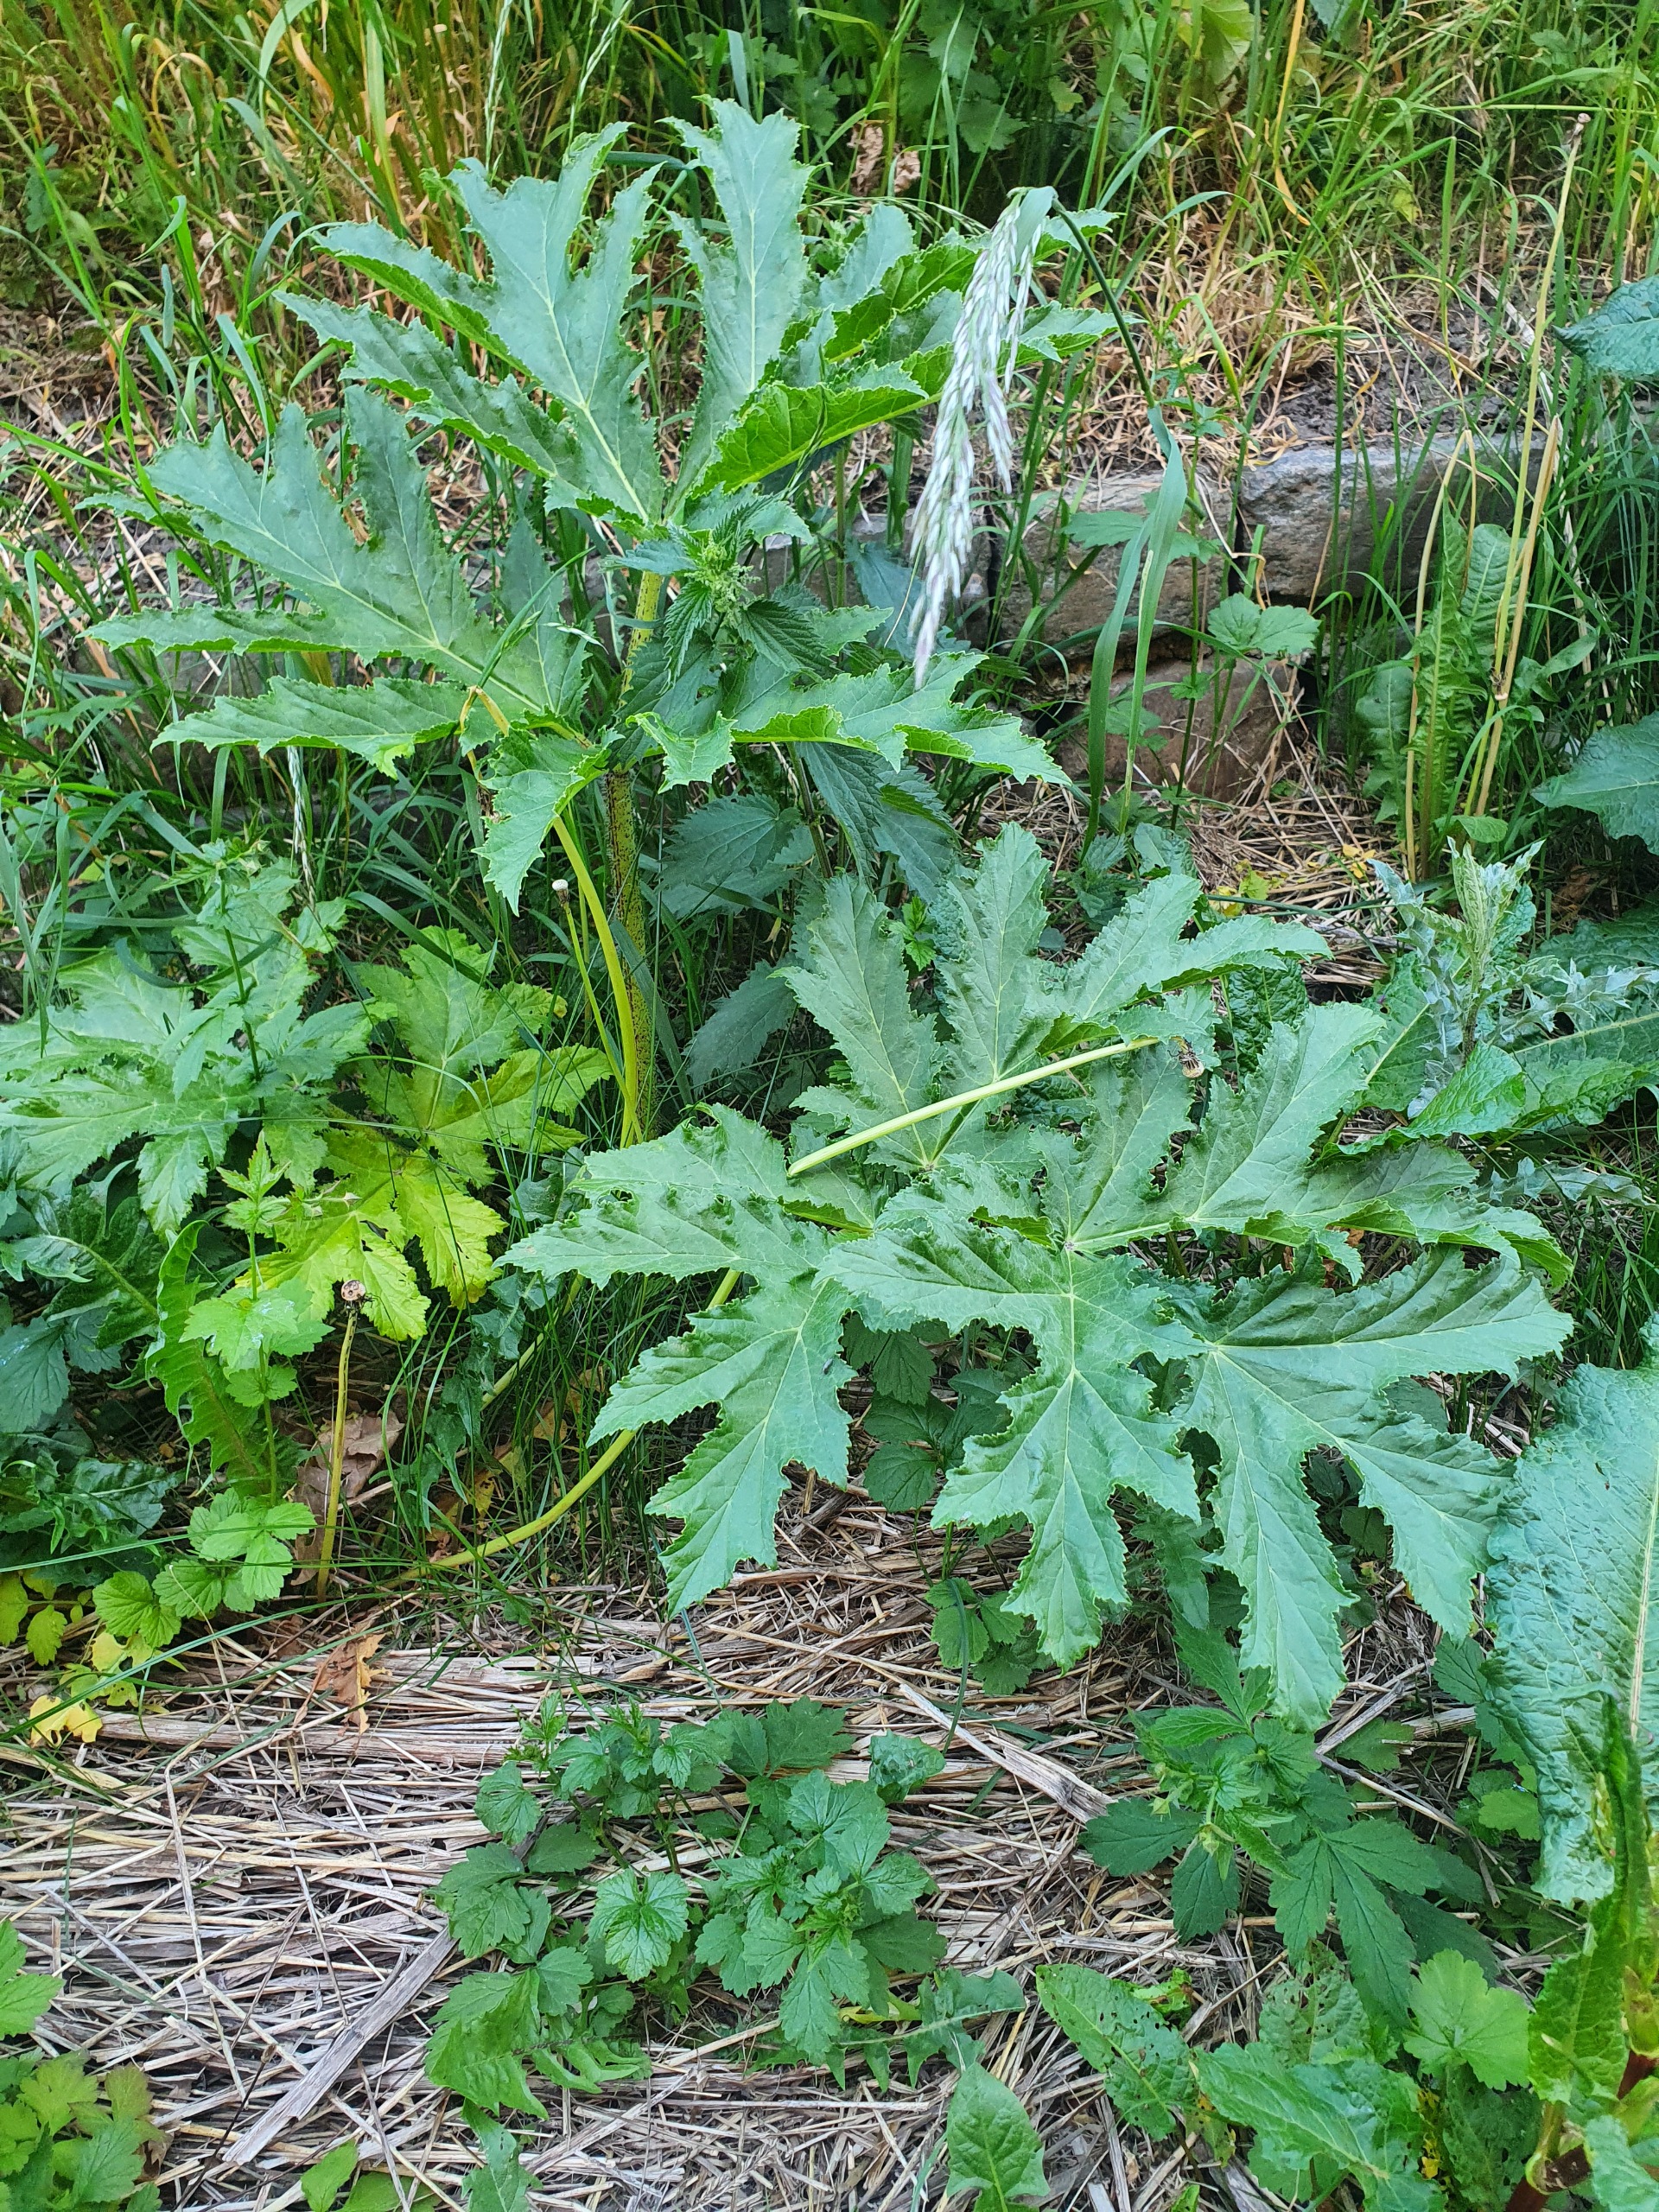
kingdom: Plantae
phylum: Tracheophyta
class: Magnoliopsida
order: Apiales
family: Apiaceae
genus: Heracleum
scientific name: Heracleum mantegazzianum
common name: Kæmpe-bjørneklo
